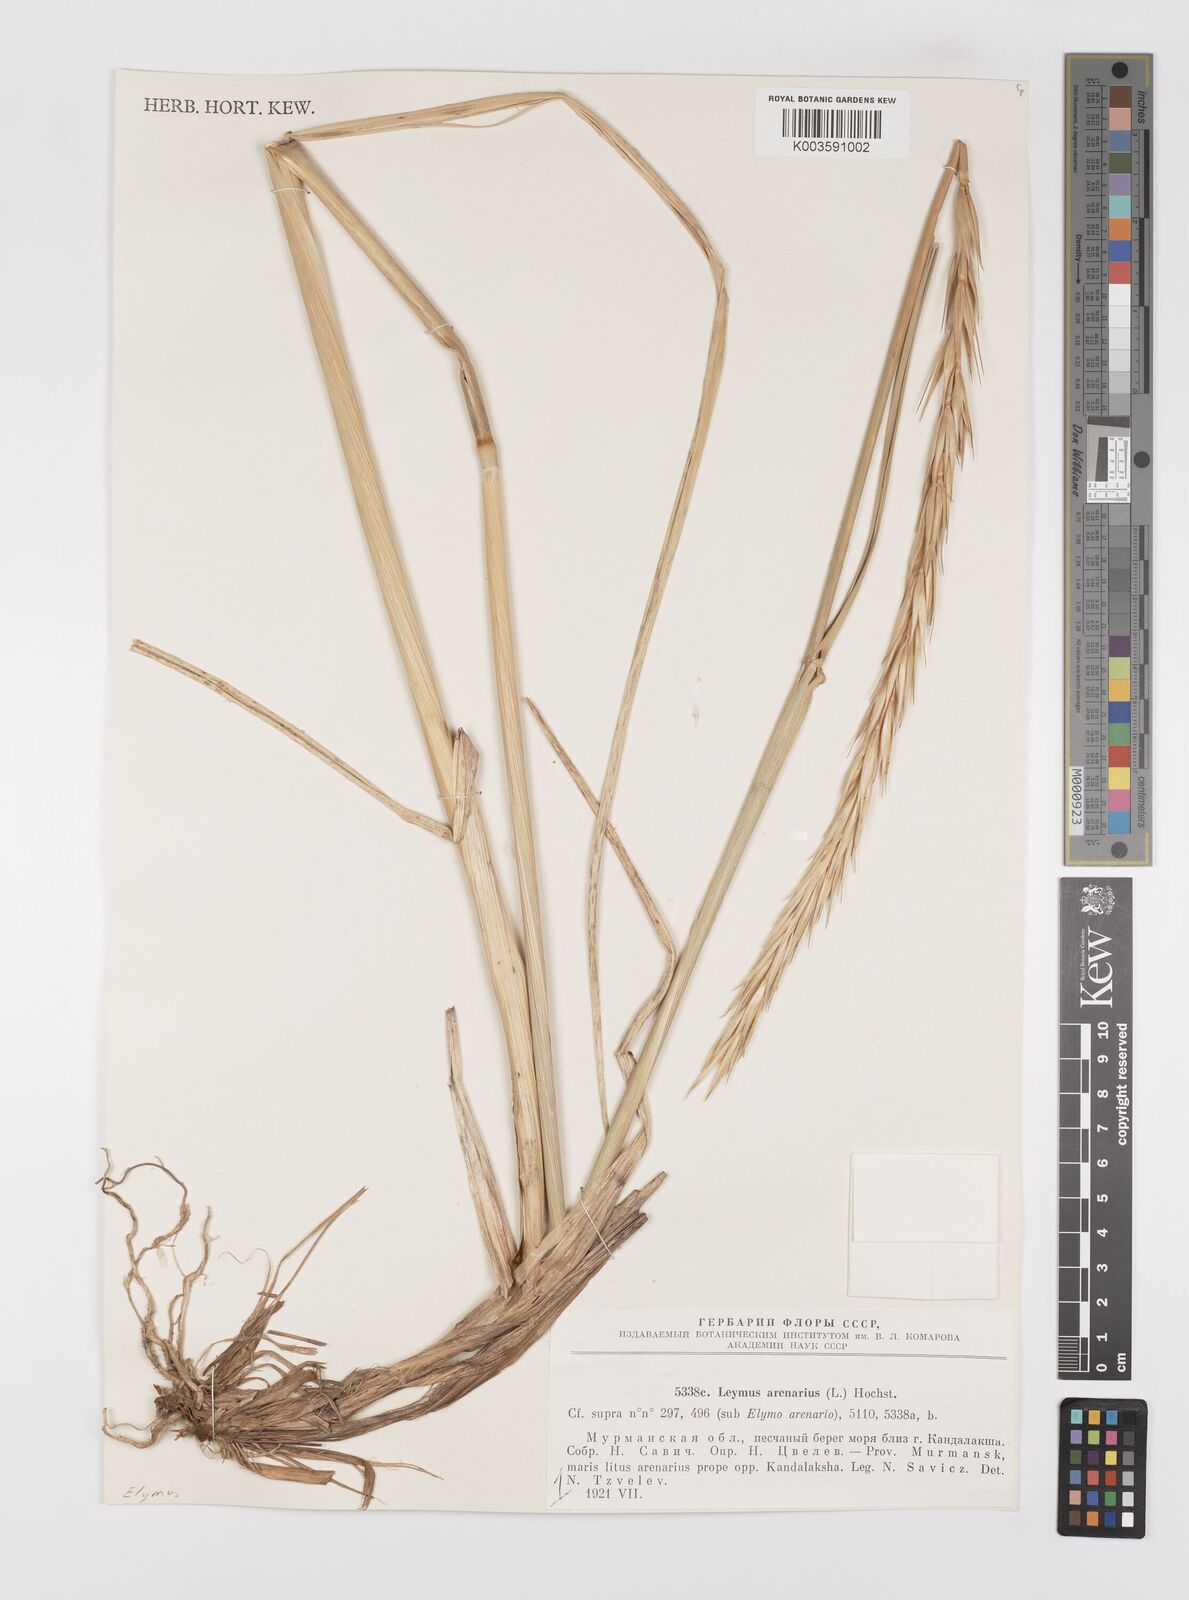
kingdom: Plantae
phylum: Tracheophyta
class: Liliopsida
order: Poales
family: Poaceae
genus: Leymus
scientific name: Leymus arenarius
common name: Lyme-grass
